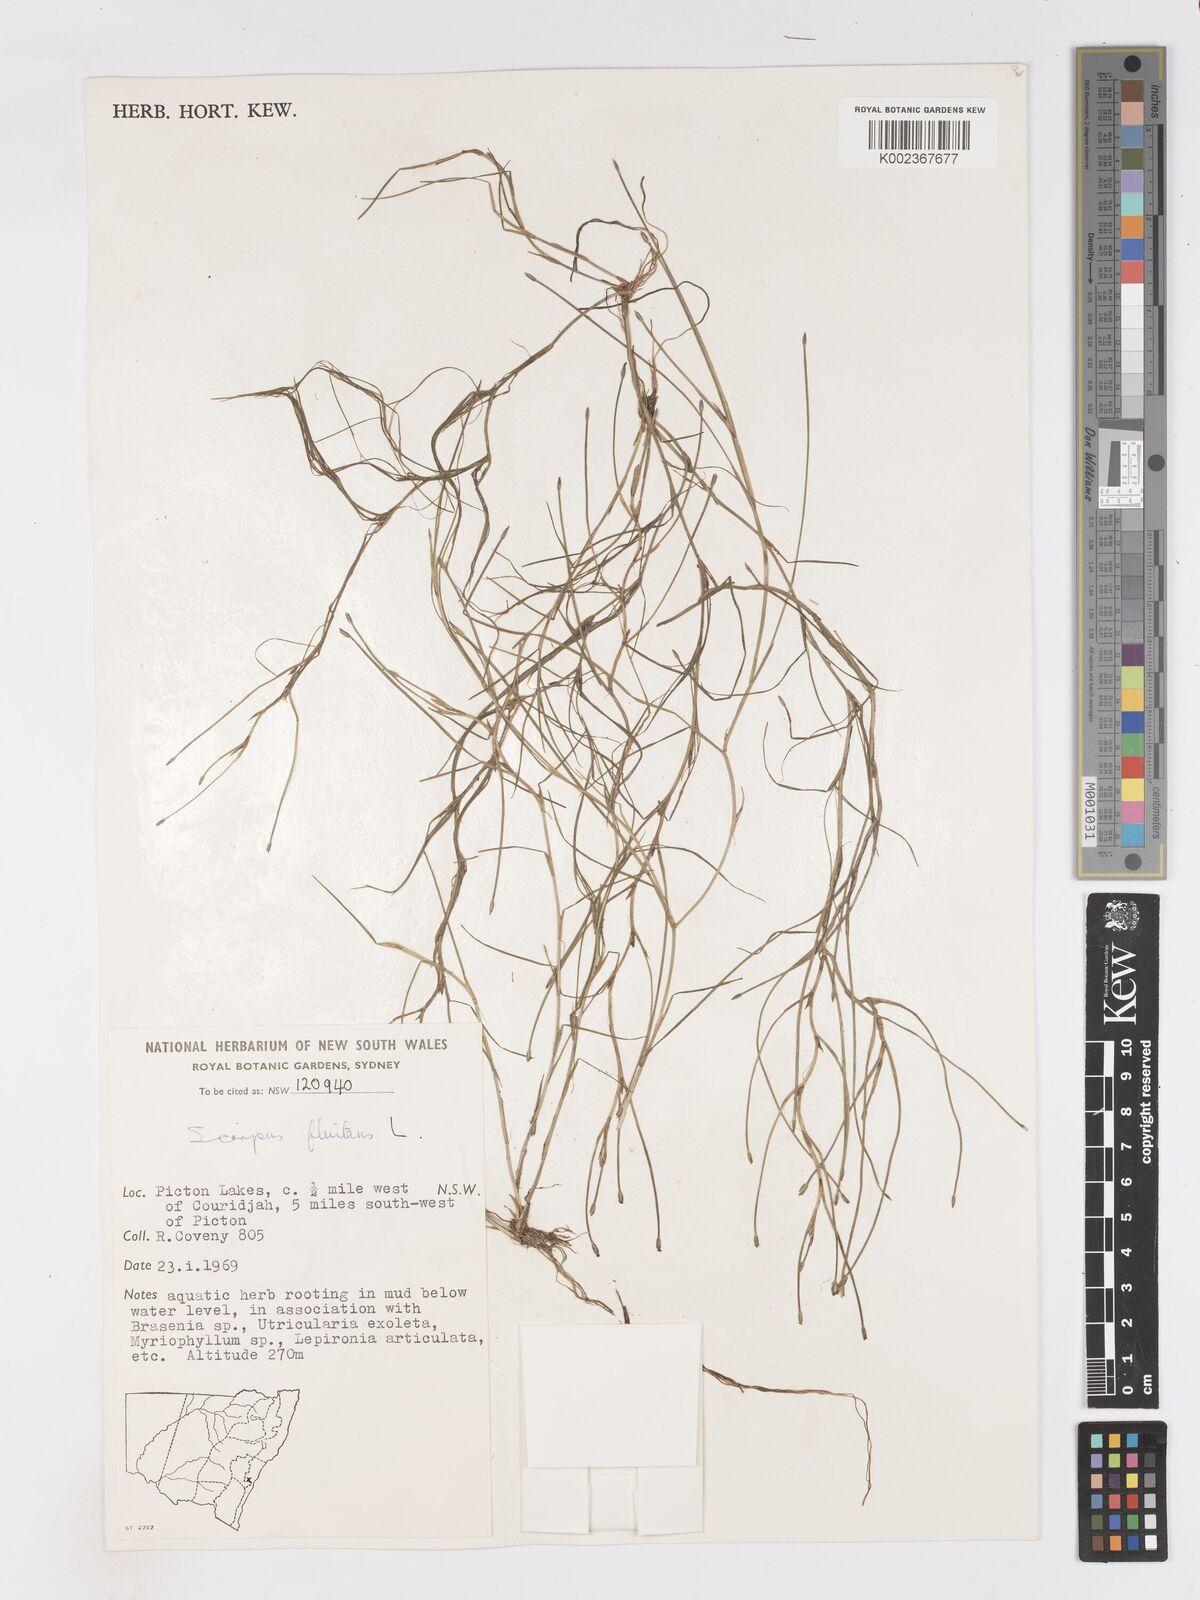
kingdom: Plantae
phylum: Tracheophyta
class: Liliopsida
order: Poales
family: Cyperaceae
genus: Isolepis
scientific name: Isolepis fluitans
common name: Floating club-rush
